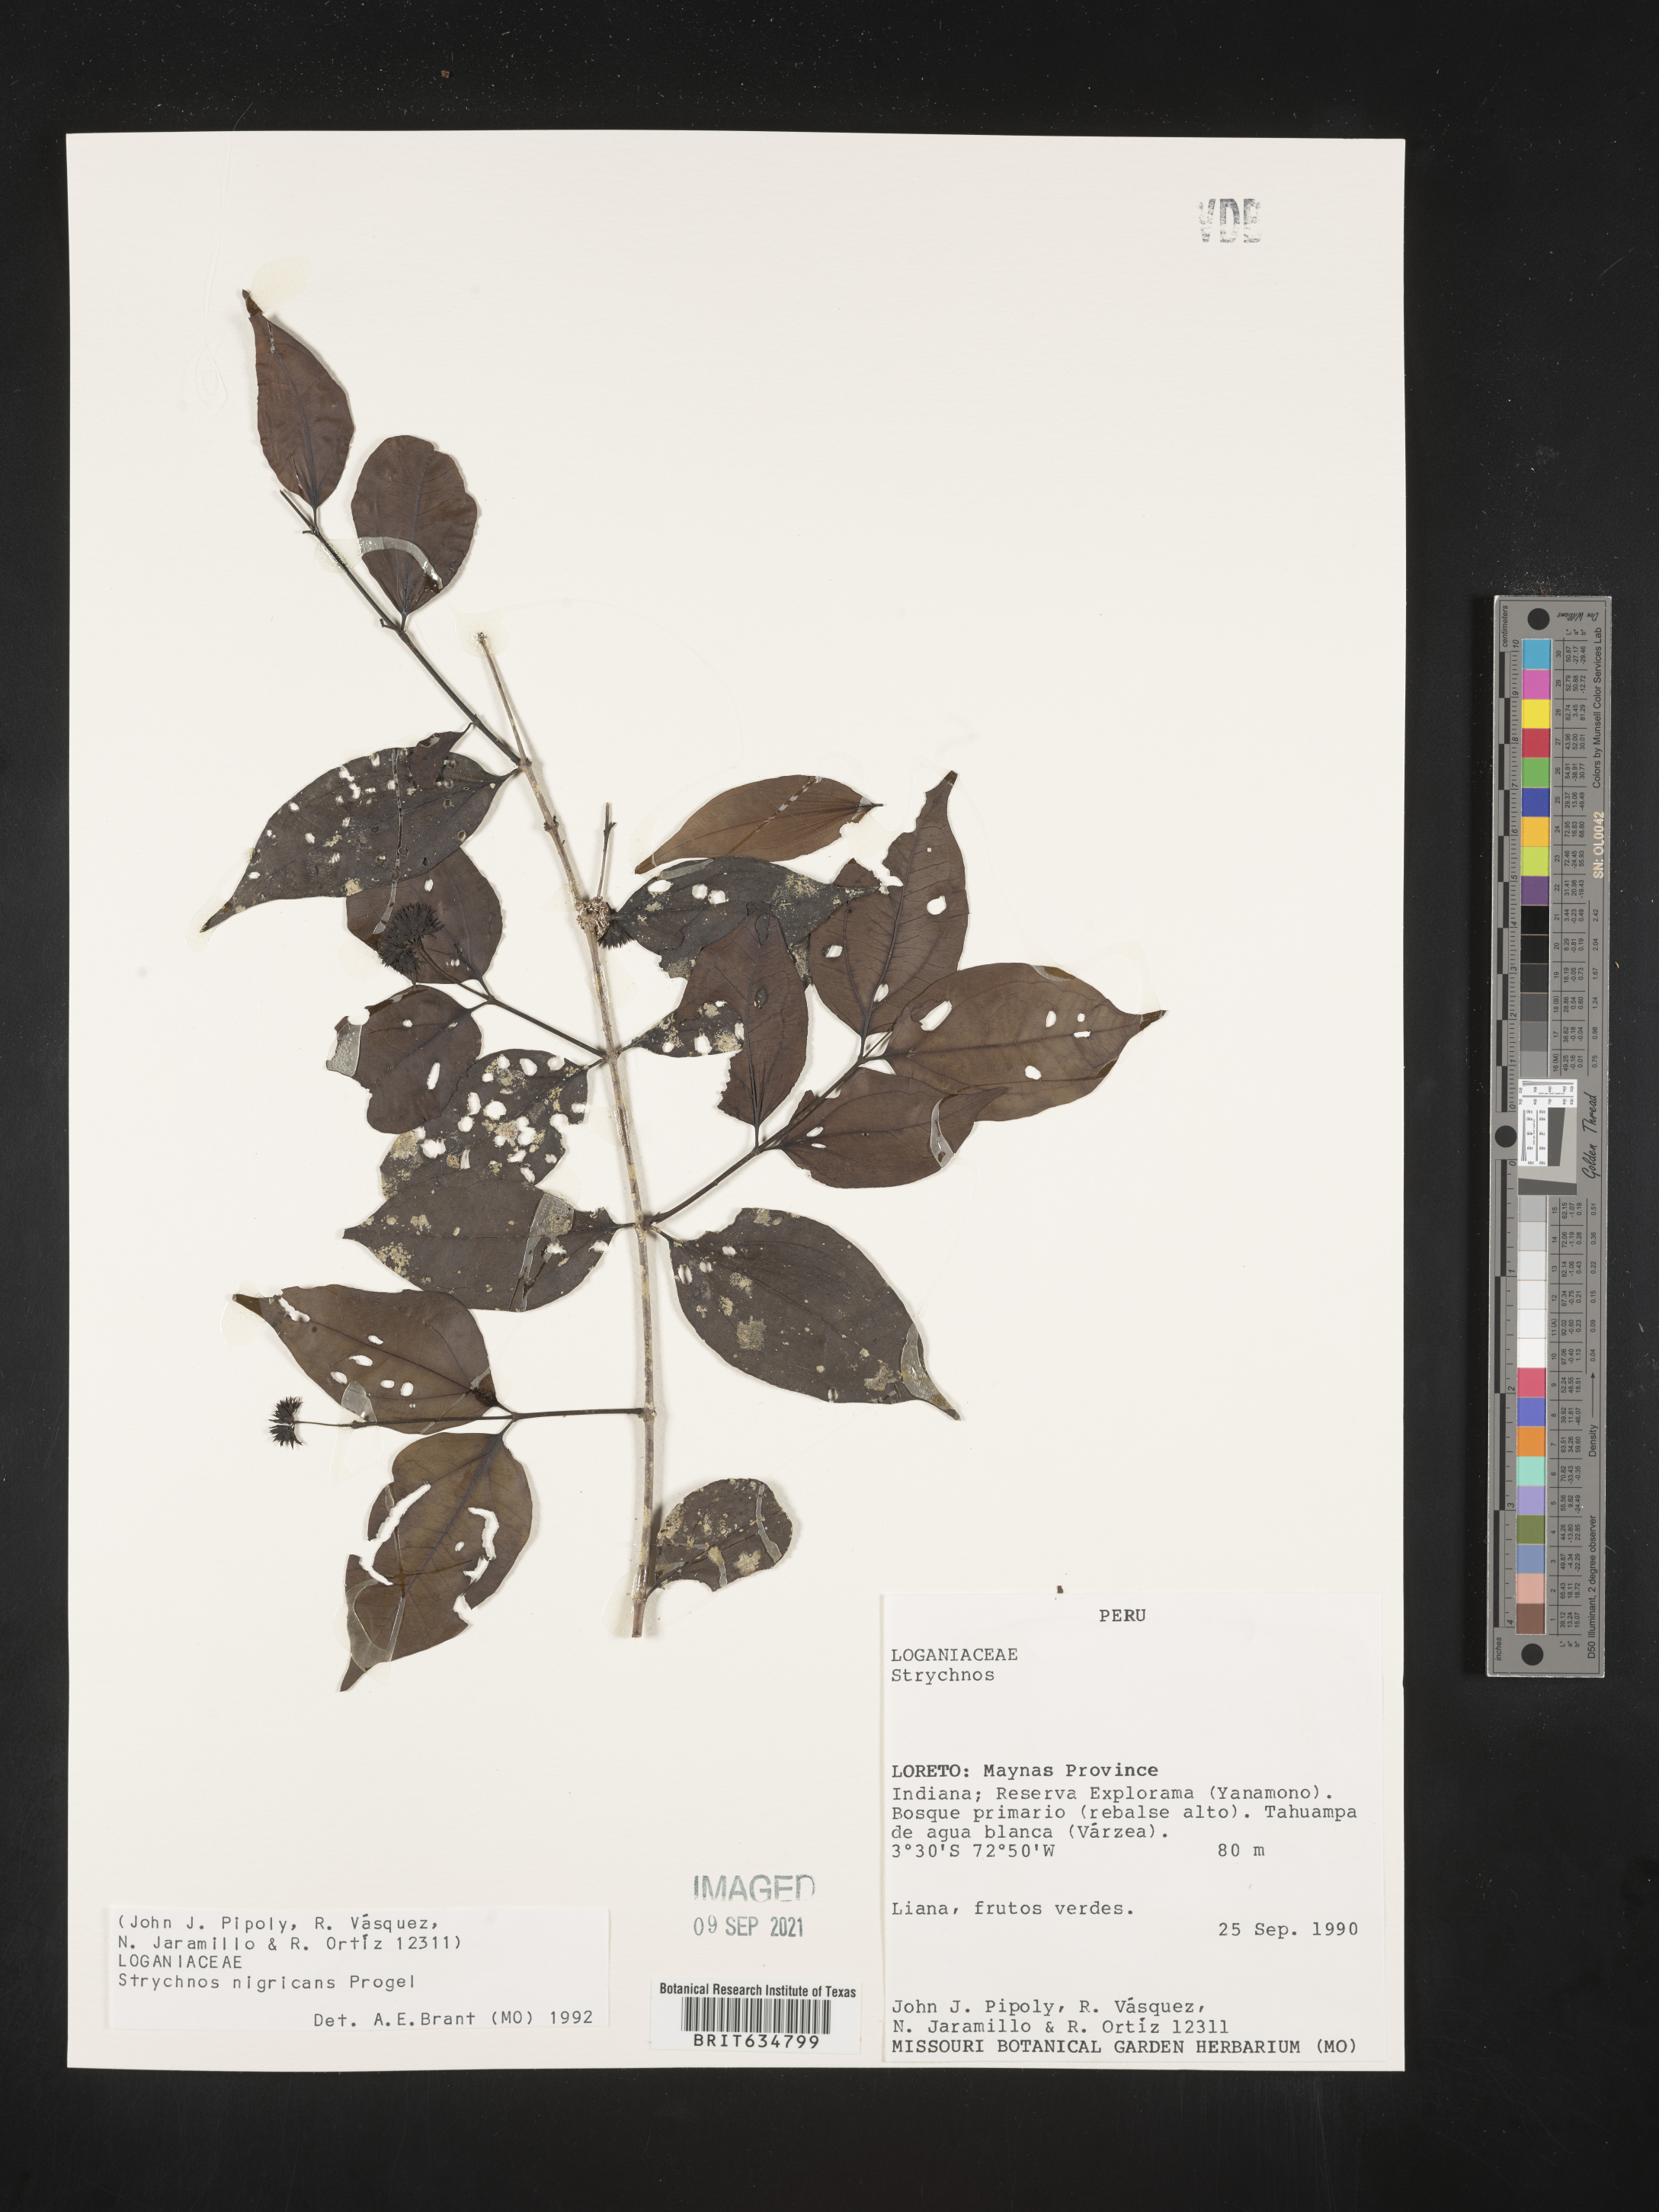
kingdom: Plantae
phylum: Tracheophyta
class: Magnoliopsida
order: Gentianales
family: Loganiaceae
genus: Strychnos
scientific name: Strychnos
